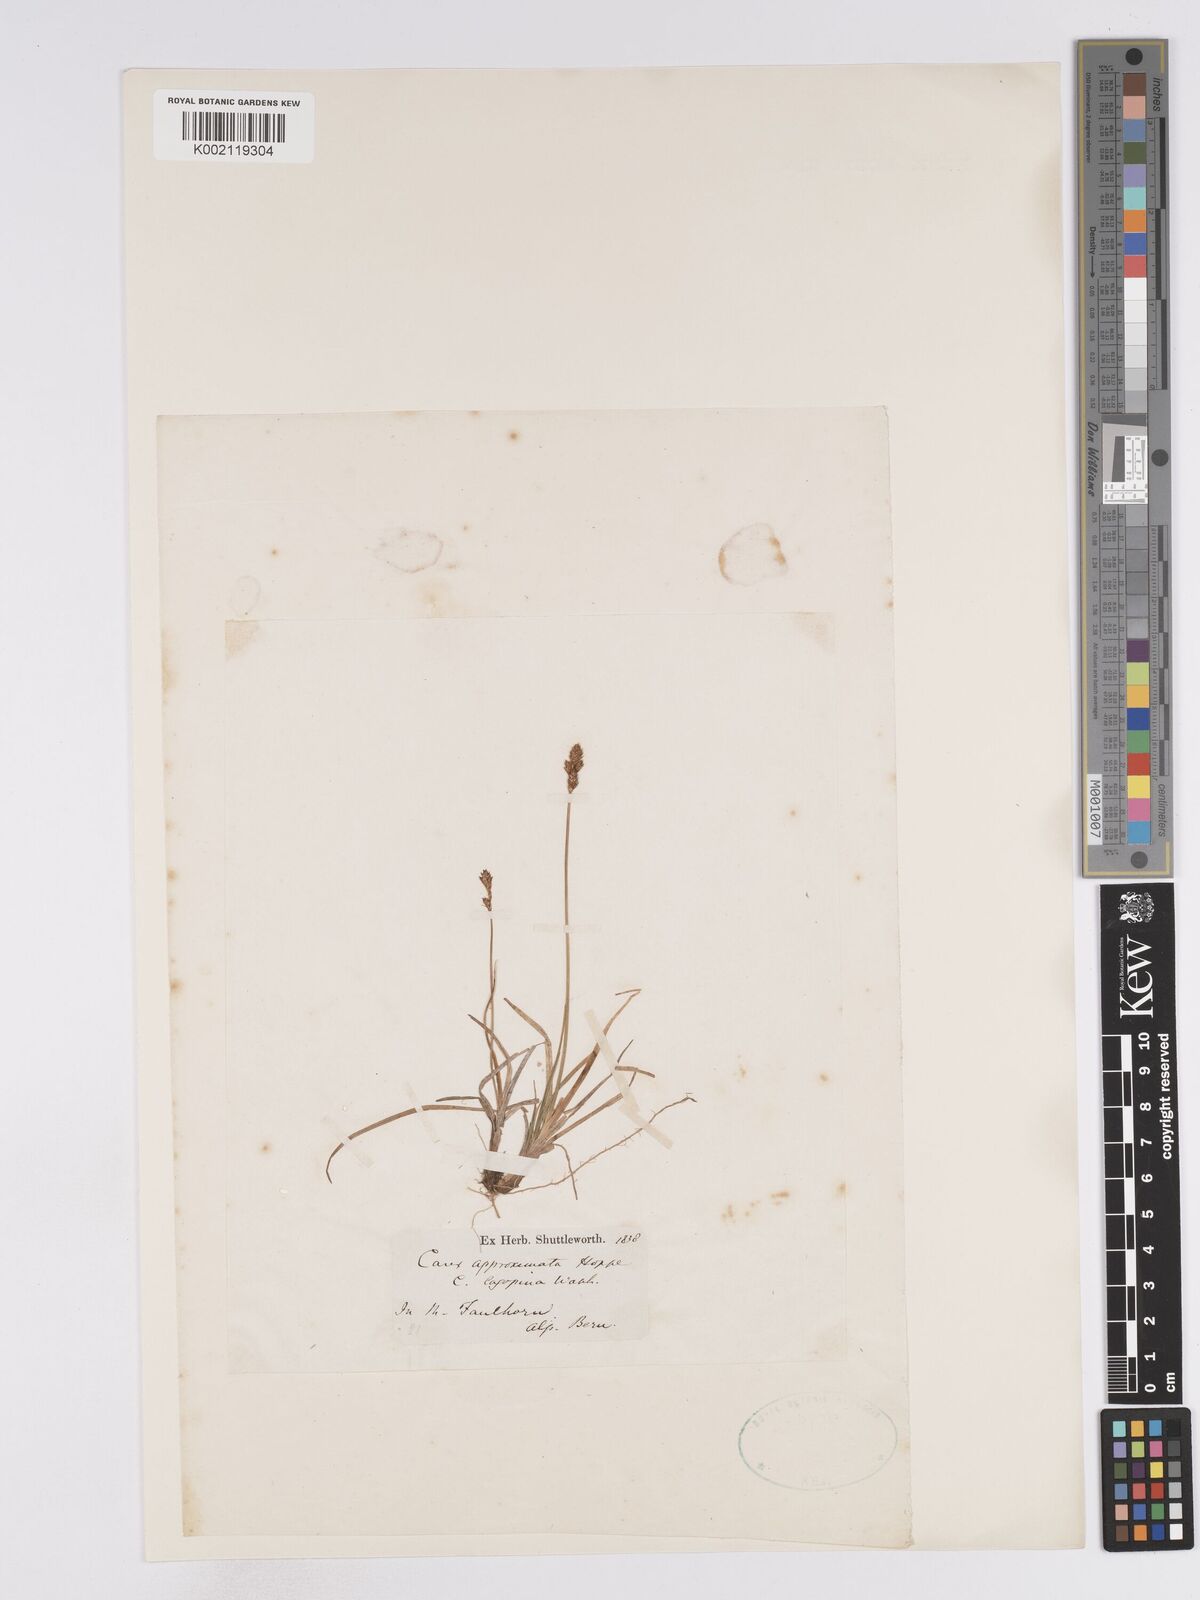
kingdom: Plantae
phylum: Tracheophyta
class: Liliopsida
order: Poales
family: Cyperaceae
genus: Carex
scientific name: Carex lachenalii
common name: Hare's-foot sedge
